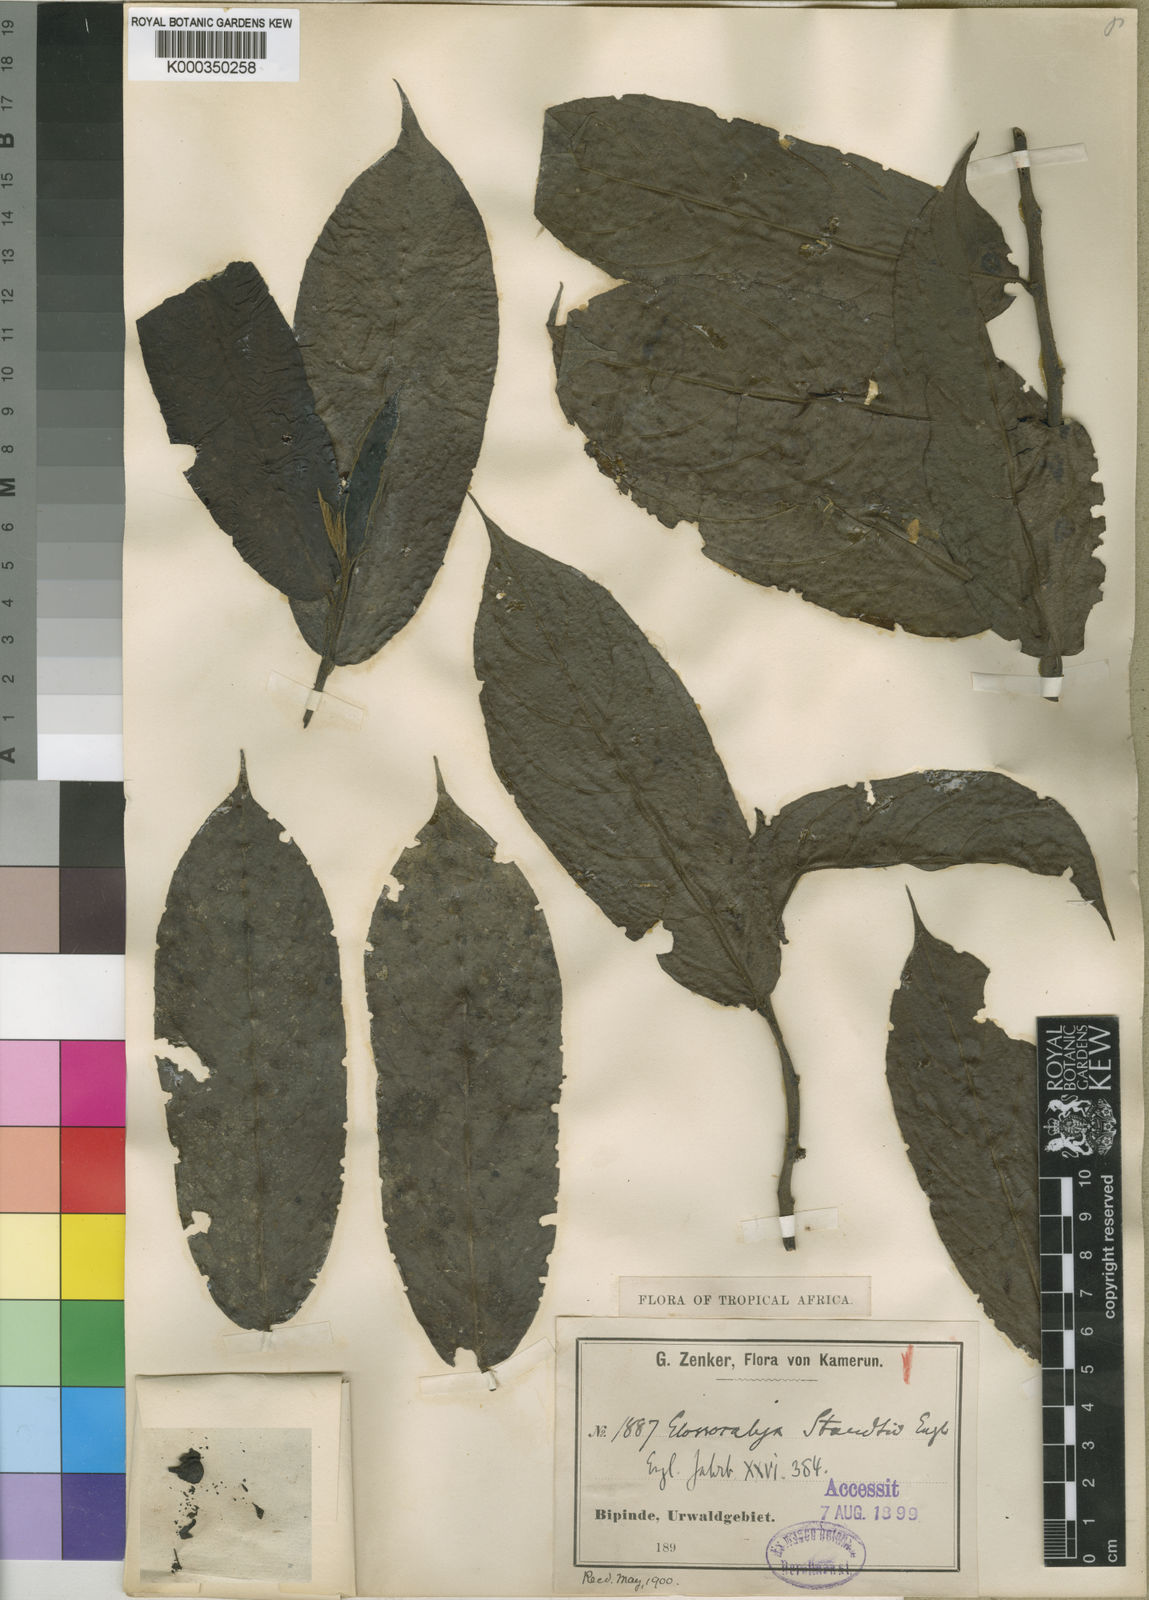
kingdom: Plantae
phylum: Tracheophyta
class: Magnoliopsida
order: Laurales
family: Siparunaceae
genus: Glossocalyx
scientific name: Glossocalyx brevipes
